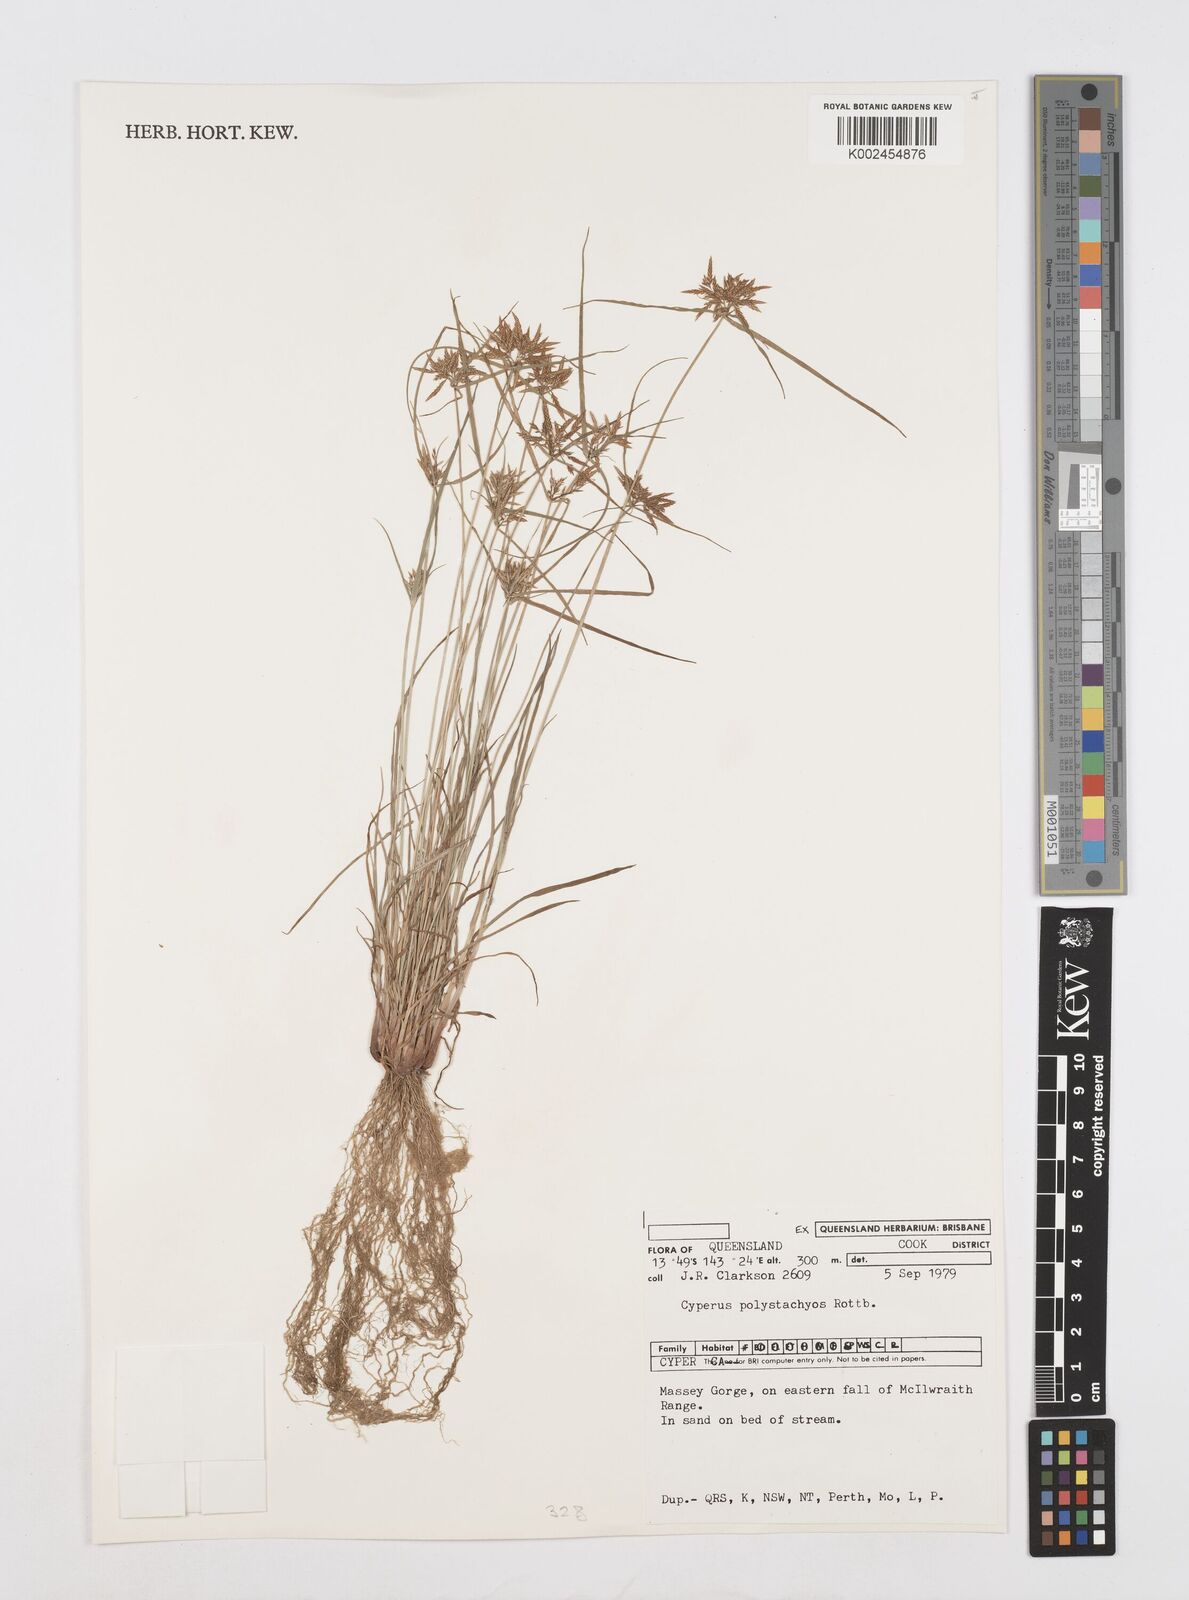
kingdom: Plantae
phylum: Tracheophyta
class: Liliopsida
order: Poales
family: Cyperaceae
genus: Cyperus
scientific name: Cyperus polystachyos
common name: Bunchy flat sedge
